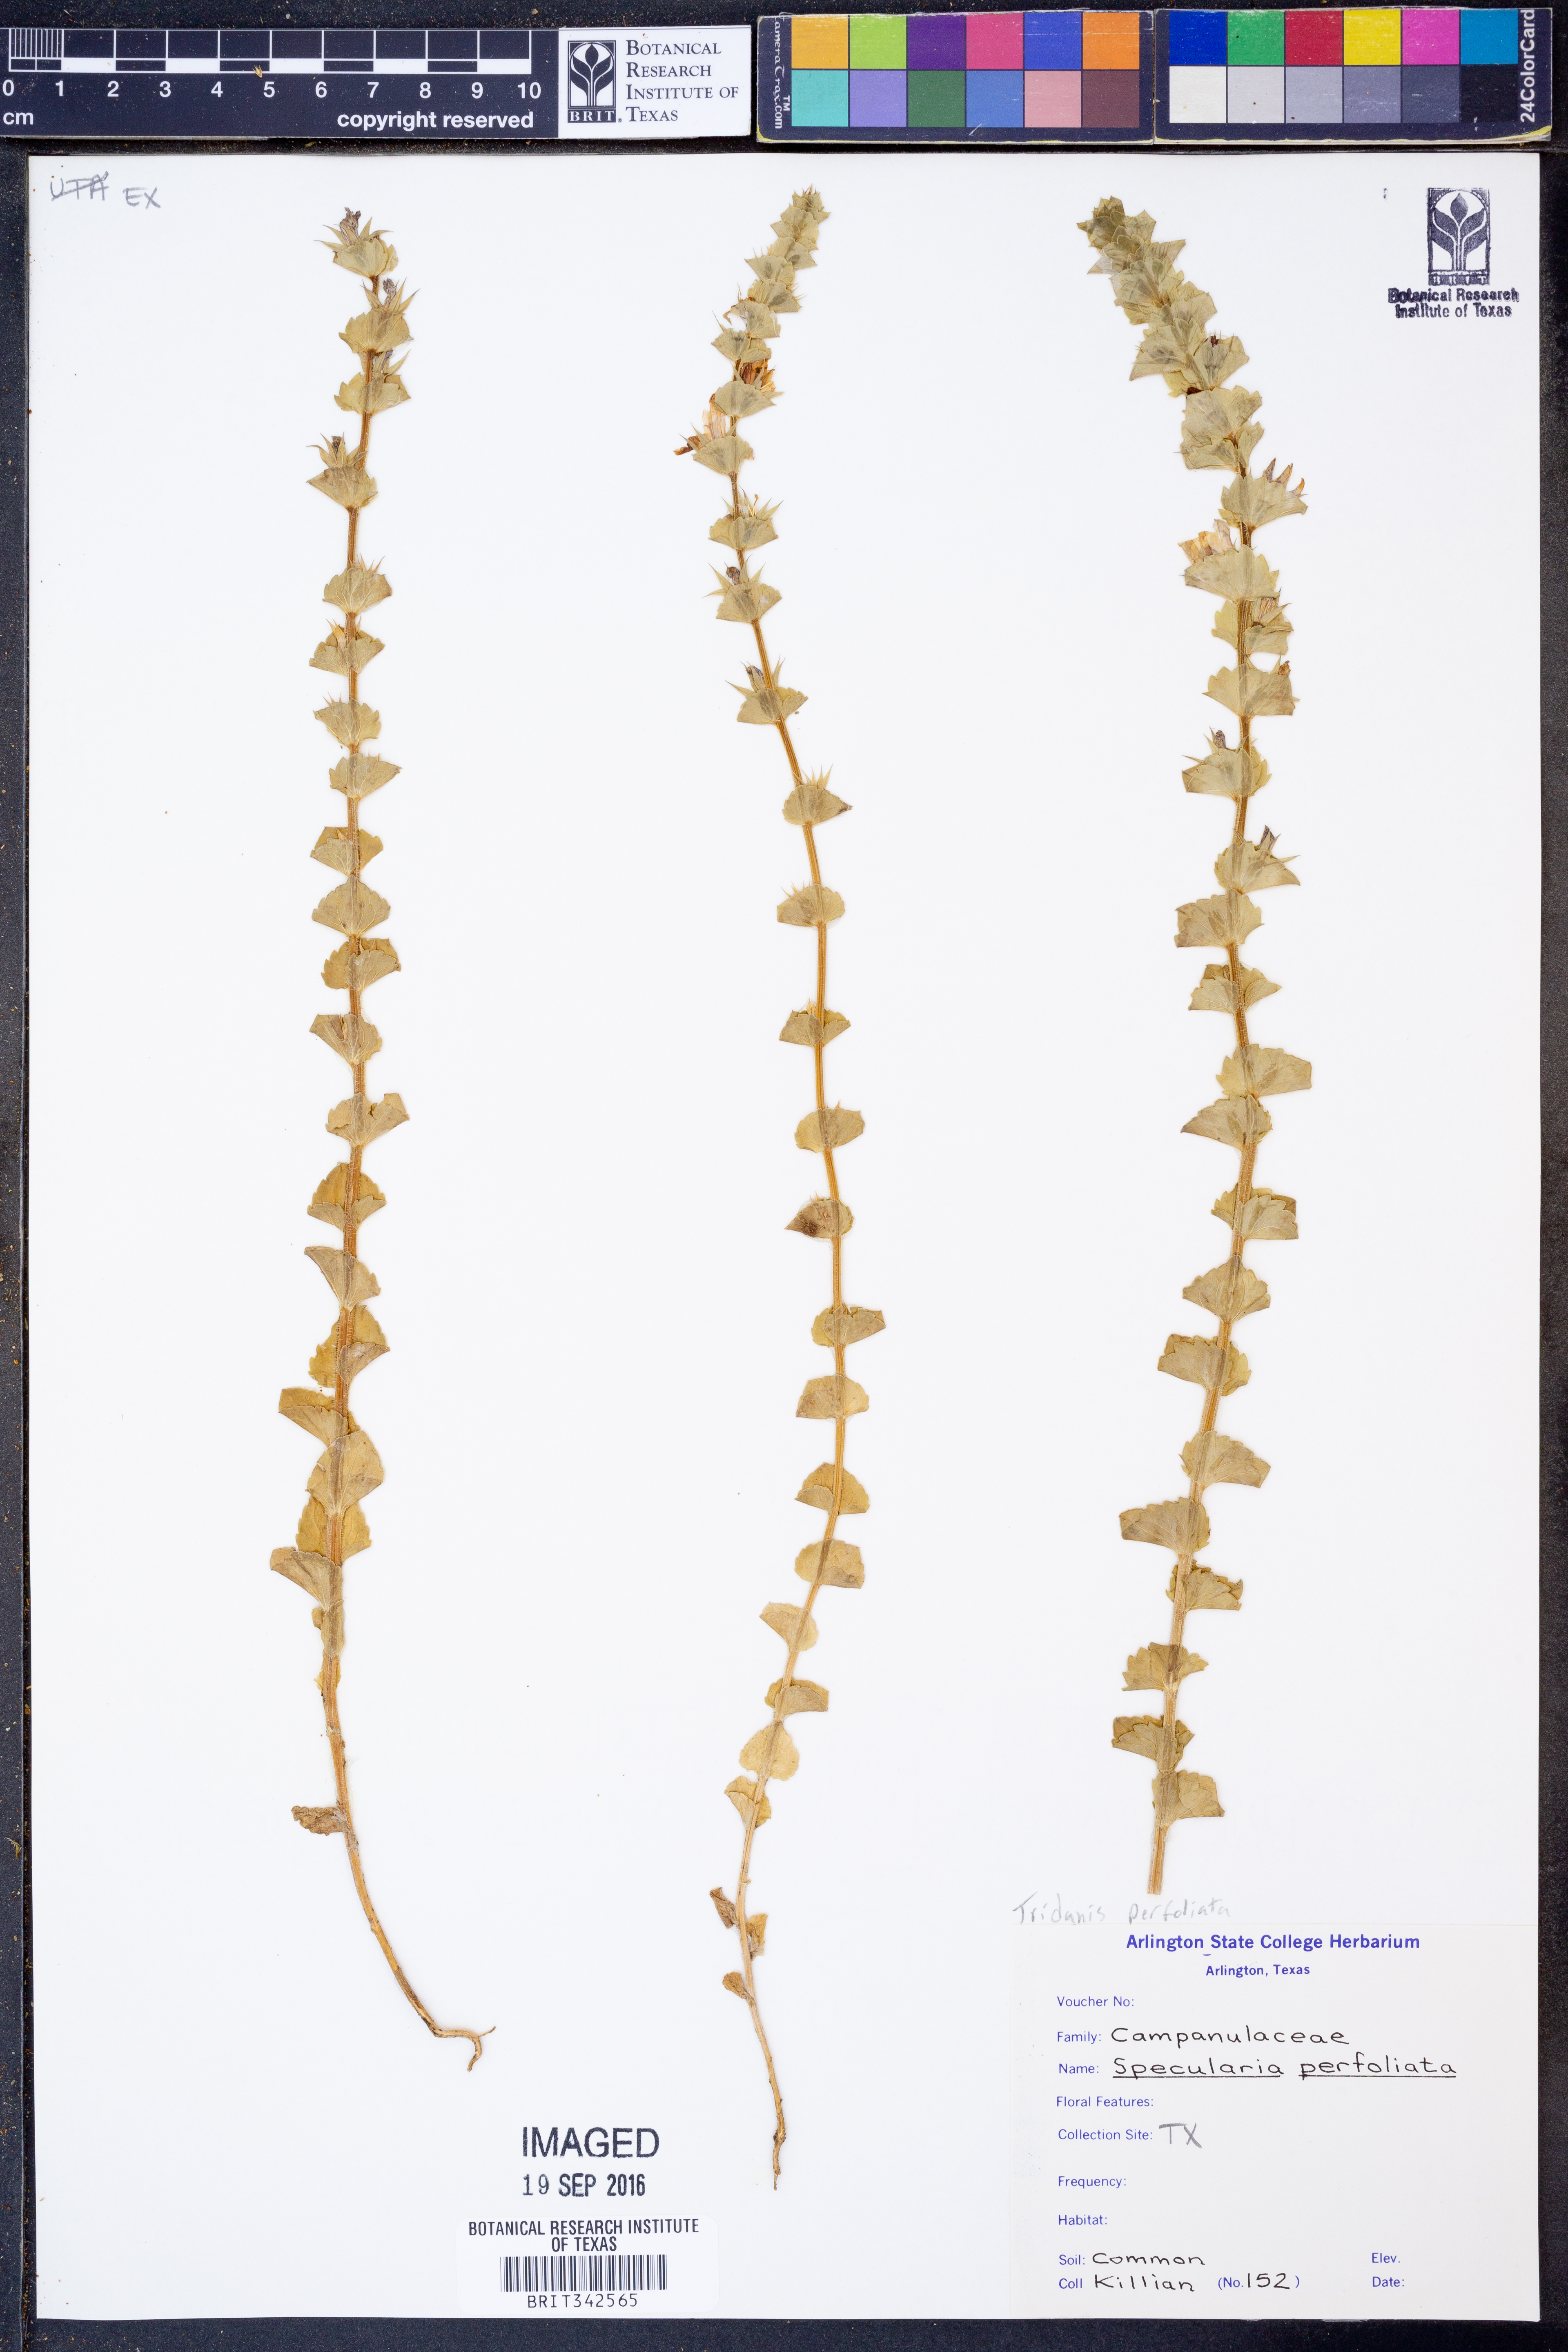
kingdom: Plantae
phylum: Tracheophyta
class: Magnoliopsida
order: Asterales
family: Campanulaceae
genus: Triodanis
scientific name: Triodanis perfoliata
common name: Clasping venus' looking-glass
